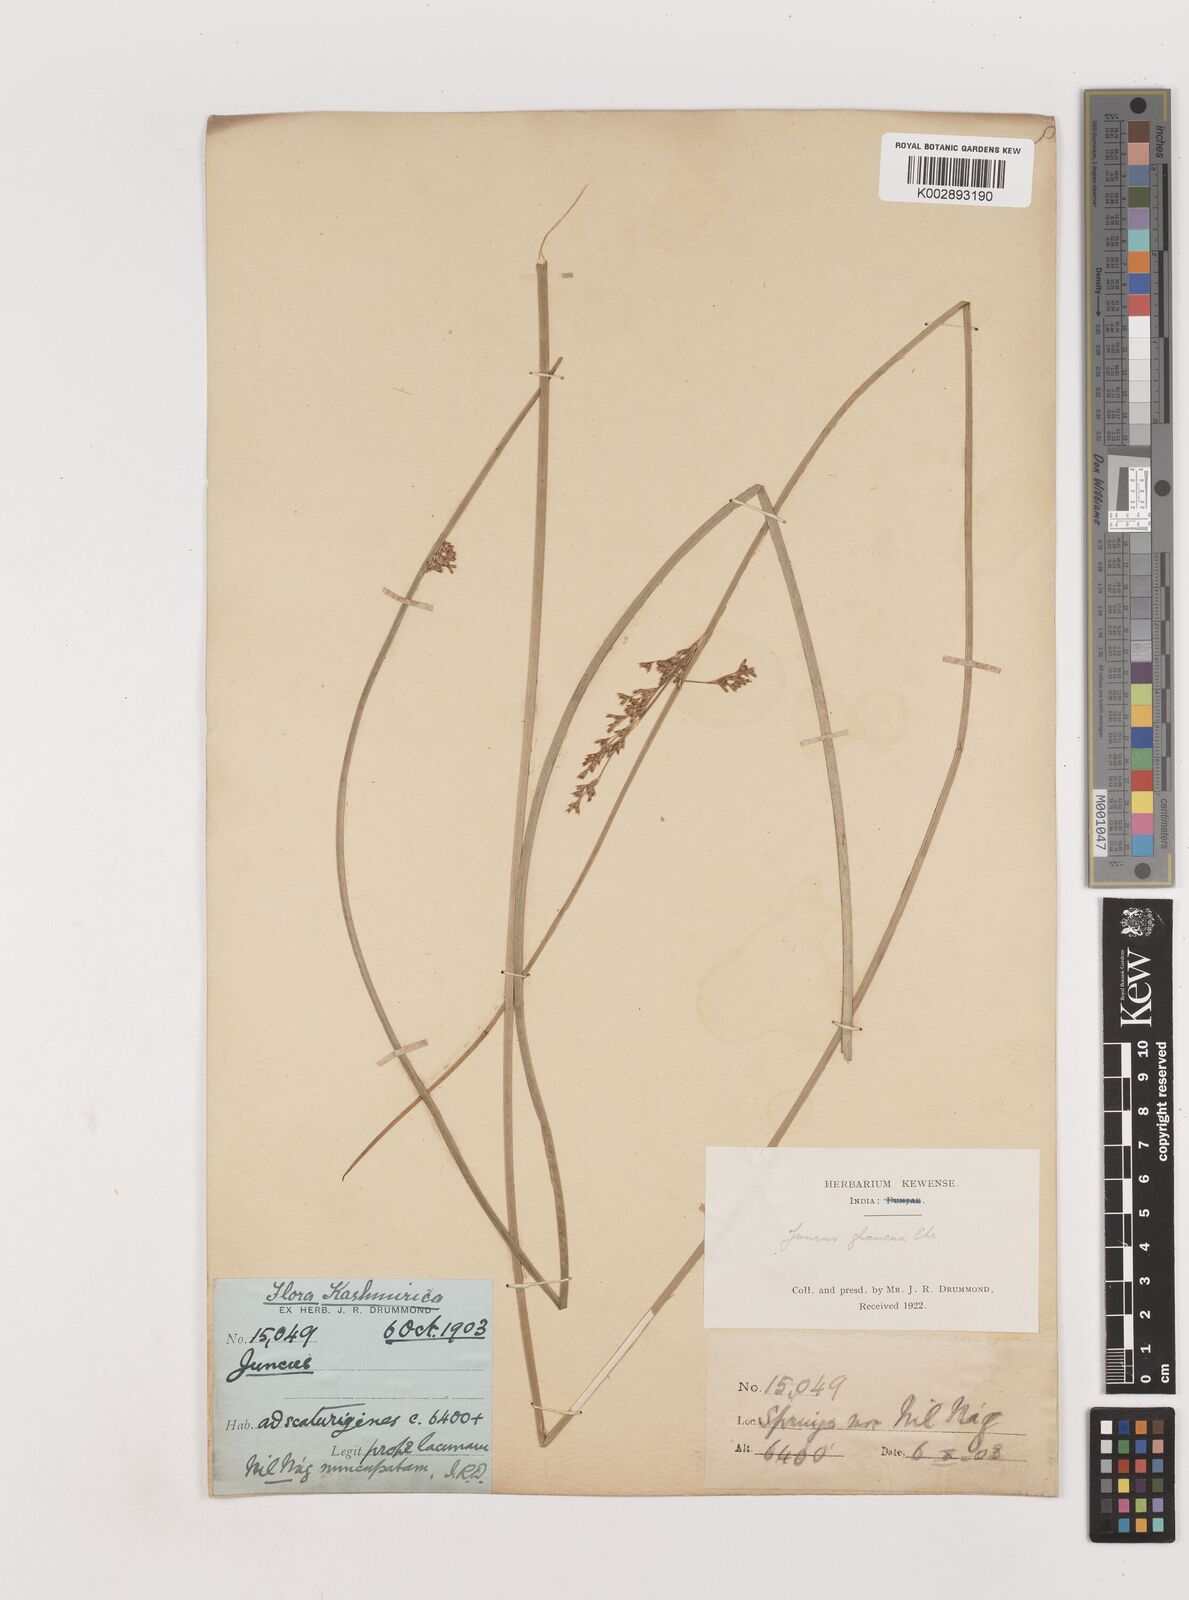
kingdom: Plantae
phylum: Tracheophyta
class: Liliopsida
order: Poales
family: Juncaceae
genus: Juncus
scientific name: Juncus inflexus
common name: Hard rush
